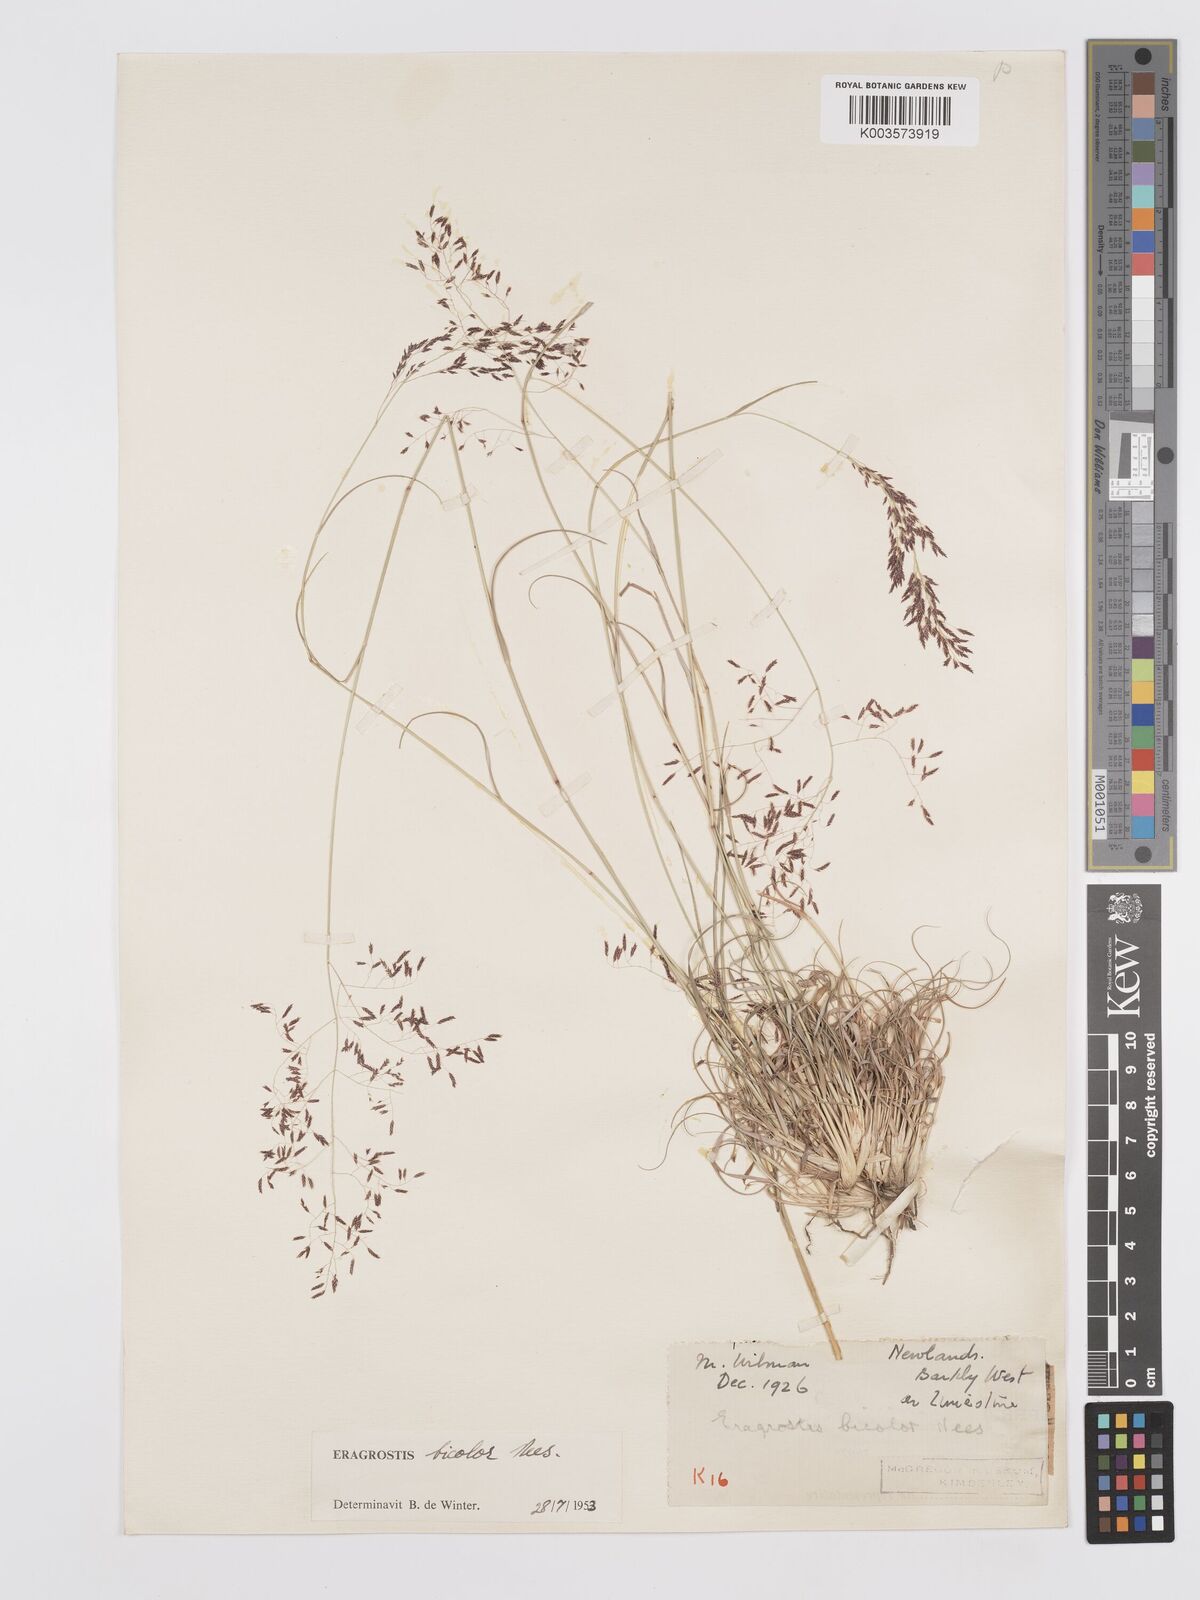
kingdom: Plantae
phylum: Tracheophyta
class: Liliopsida
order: Poales
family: Poaceae
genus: Eragrostis
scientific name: Eragrostis
